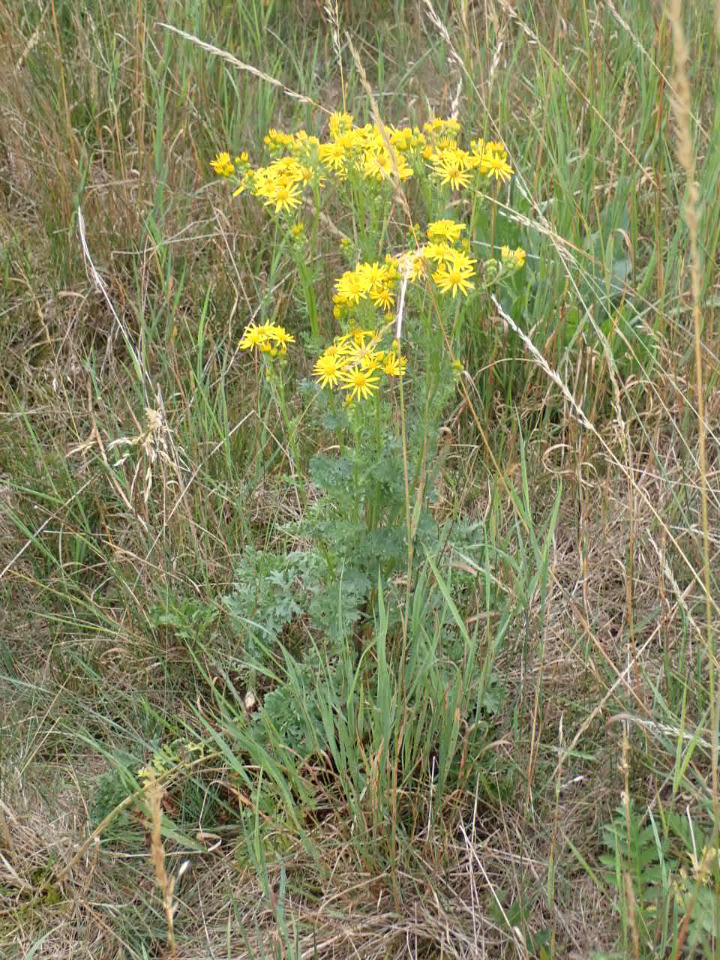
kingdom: Plantae
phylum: Tracheophyta
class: Magnoliopsida
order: Asterales
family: Asteraceae
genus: Jacobaea
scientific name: Jacobaea vulgaris
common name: Eng-brandbæger
